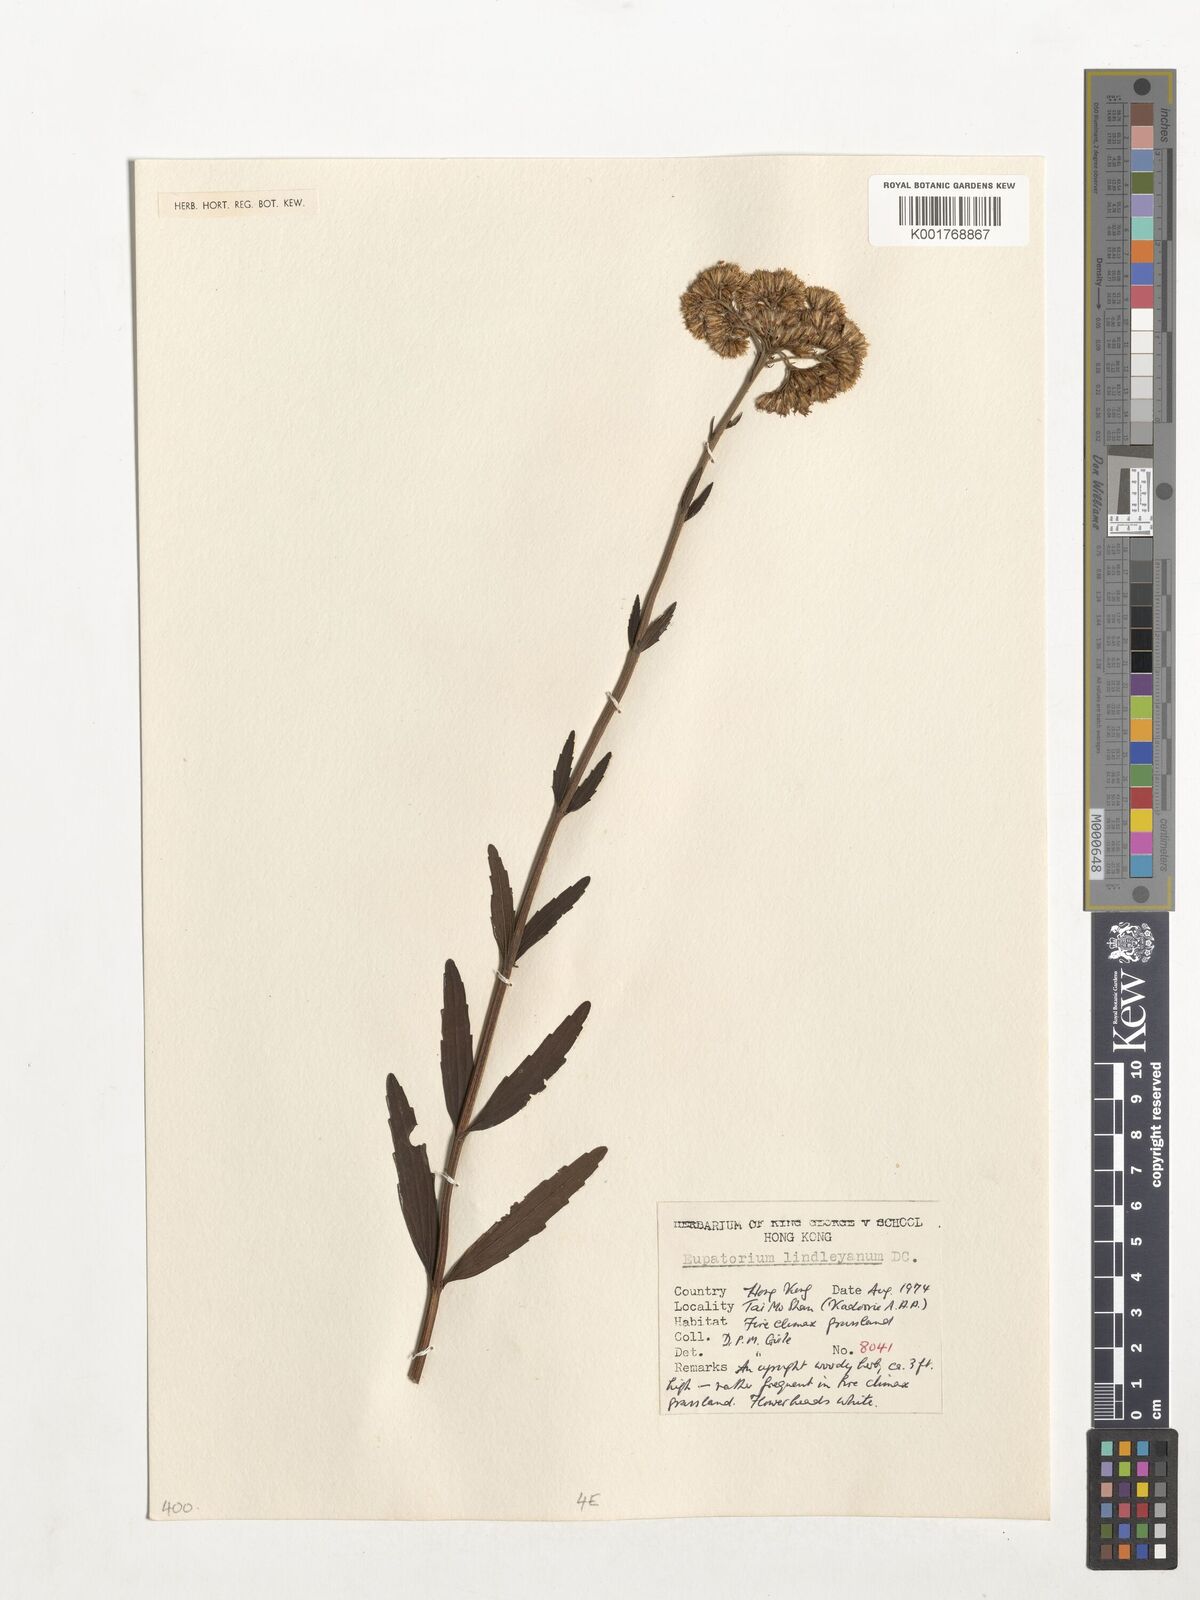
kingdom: Plantae
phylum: Tracheophyta
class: Magnoliopsida
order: Asterales
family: Asteraceae
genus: Eupatorium
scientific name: Eupatorium lindleyanum
